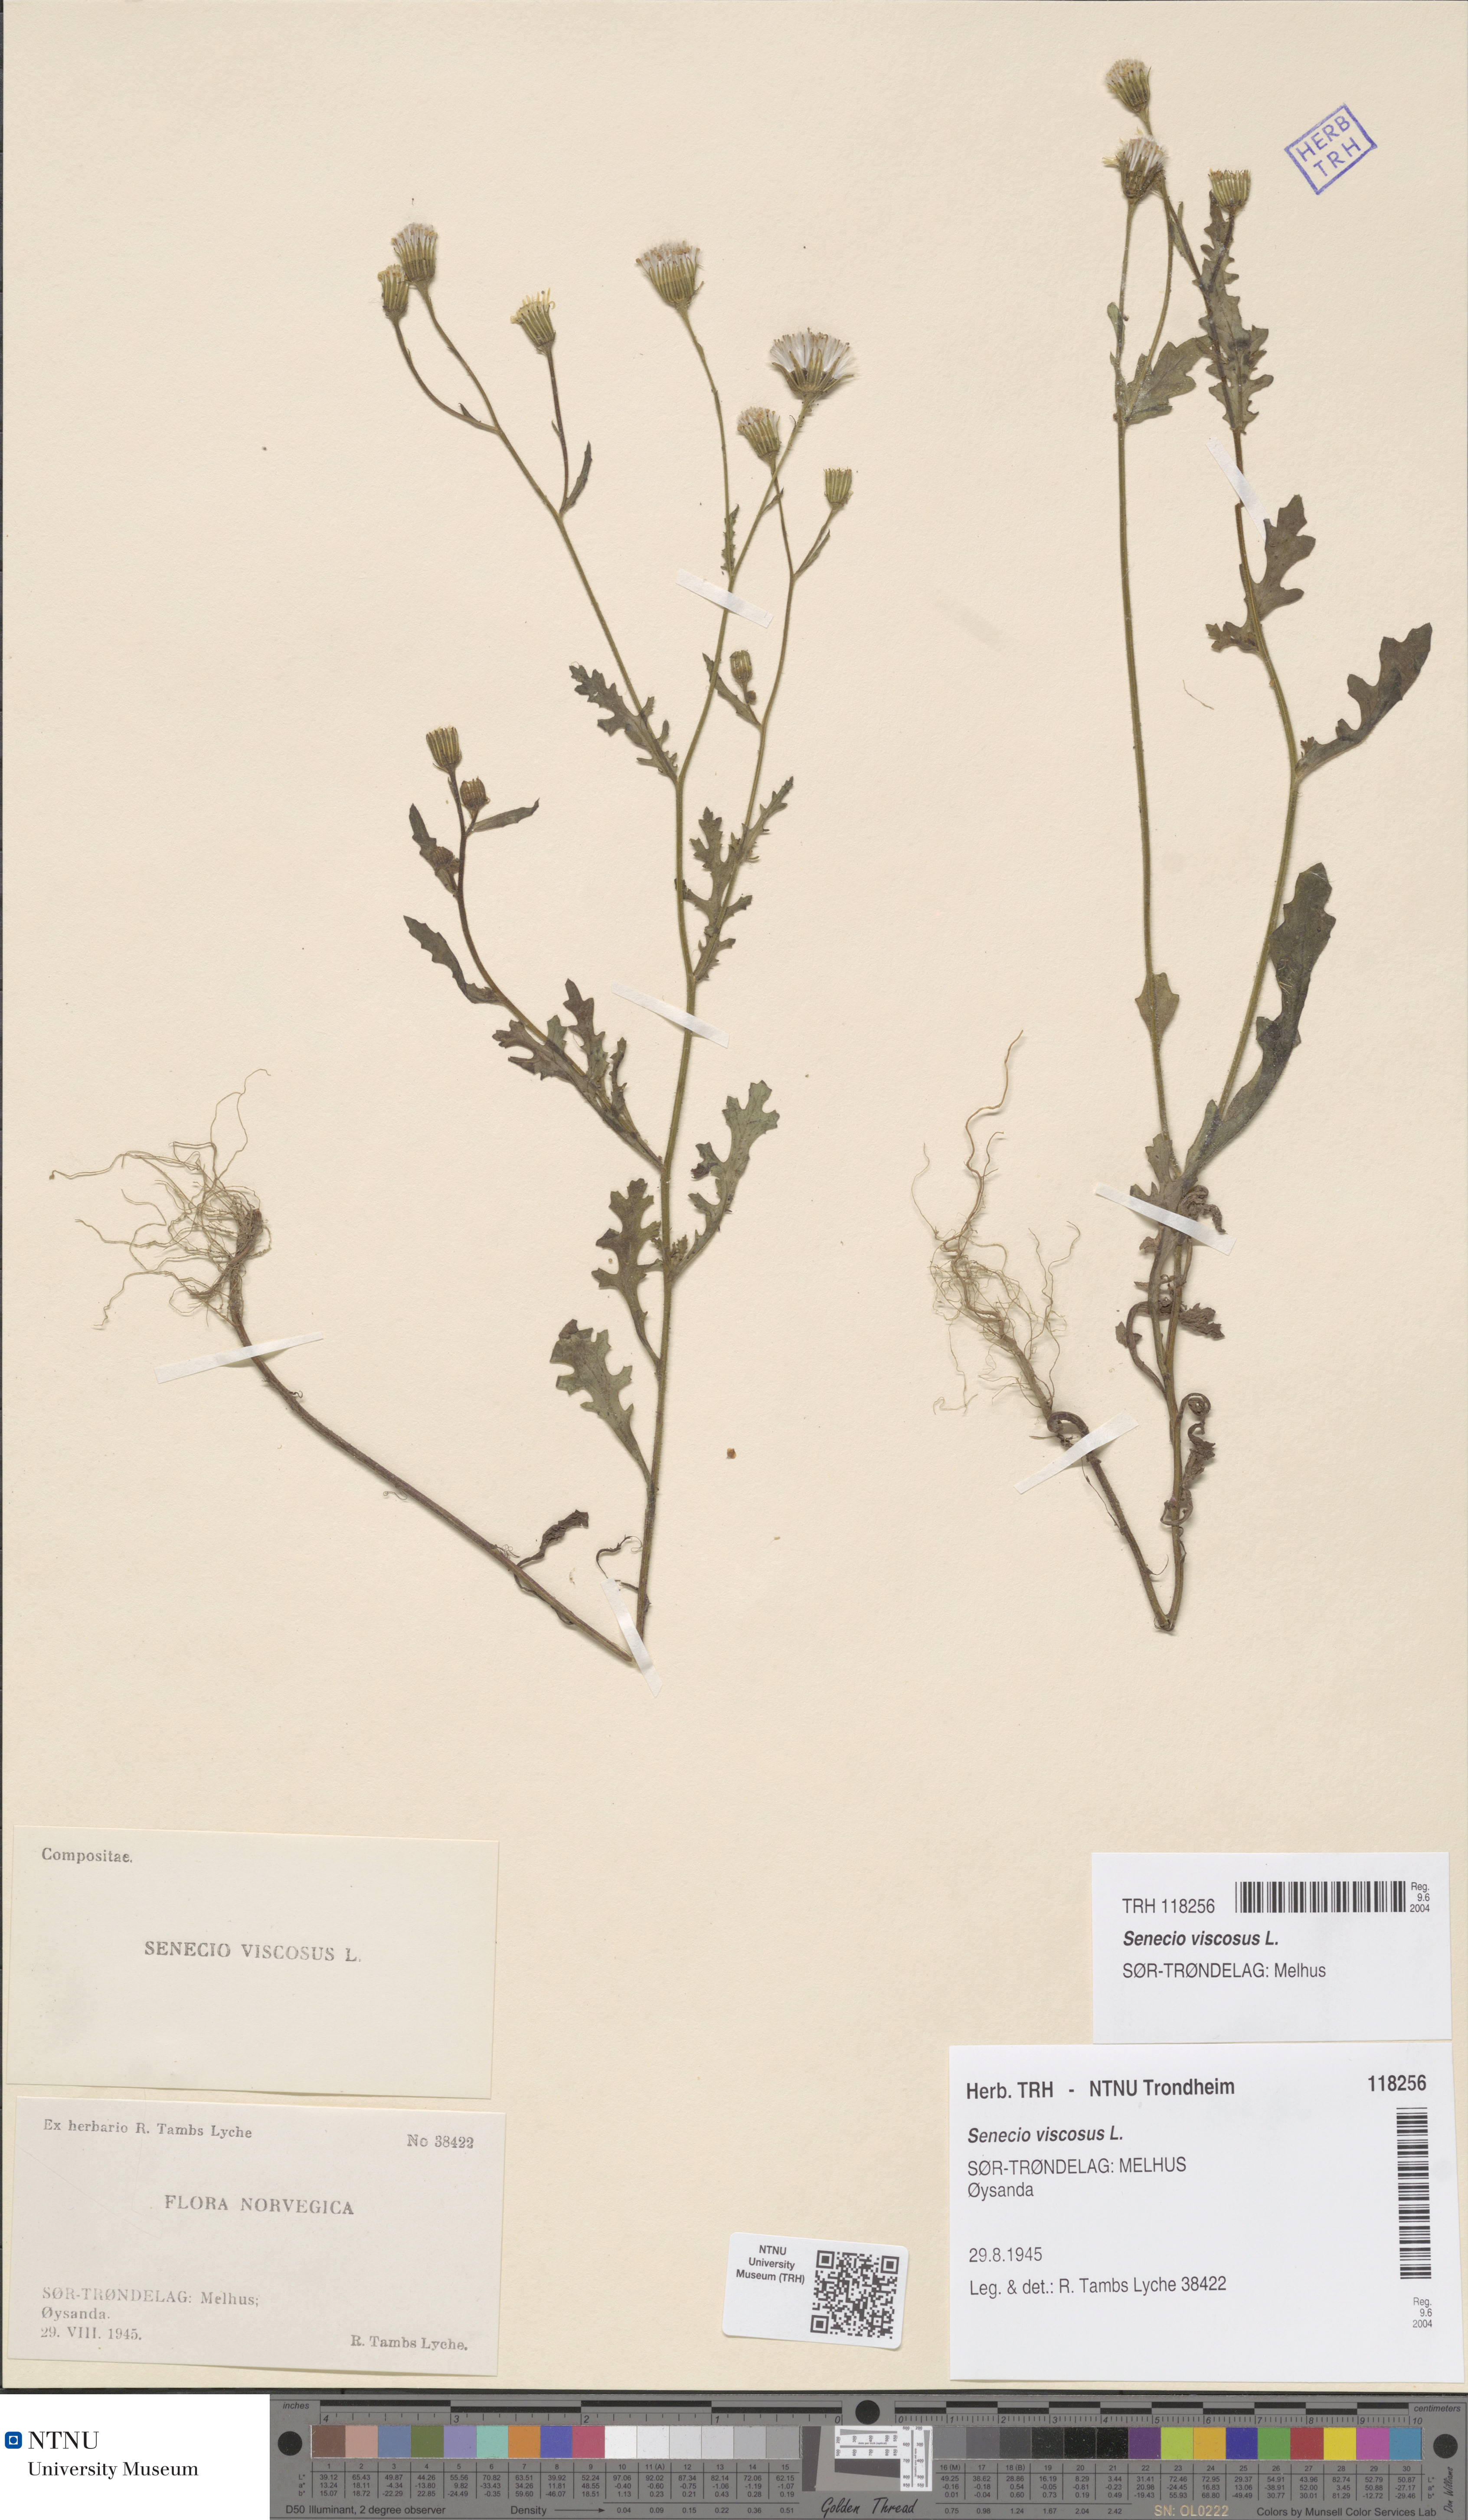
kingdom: Plantae
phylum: Tracheophyta
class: Magnoliopsida
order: Asterales
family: Asteraceae
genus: Senecio
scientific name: Senecio viscosus
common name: Sticky groundsel
